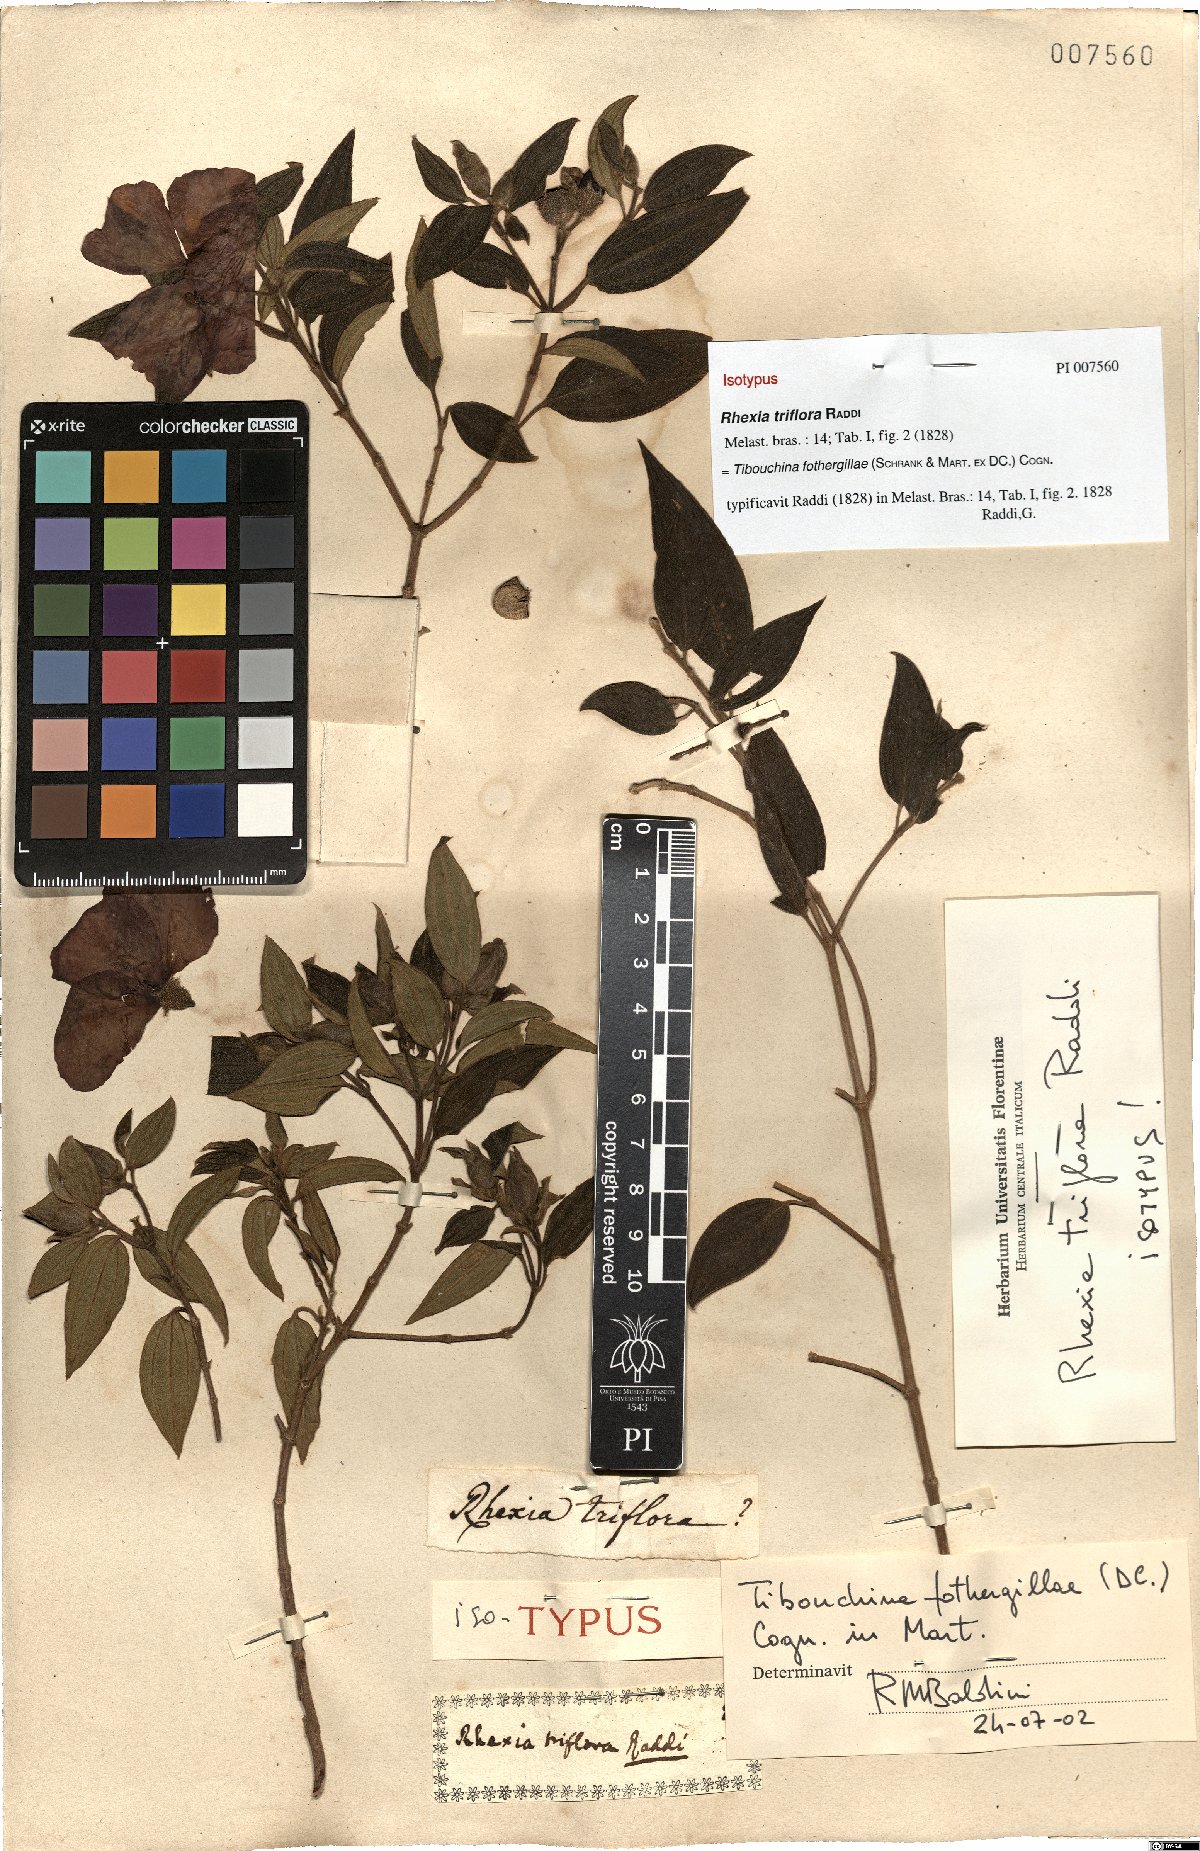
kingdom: Plantae
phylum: Tracheophyta
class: Magnoliopsida
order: Myrtales
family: Melastomataceae
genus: Pleroma
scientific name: Pleroma fothergillae
